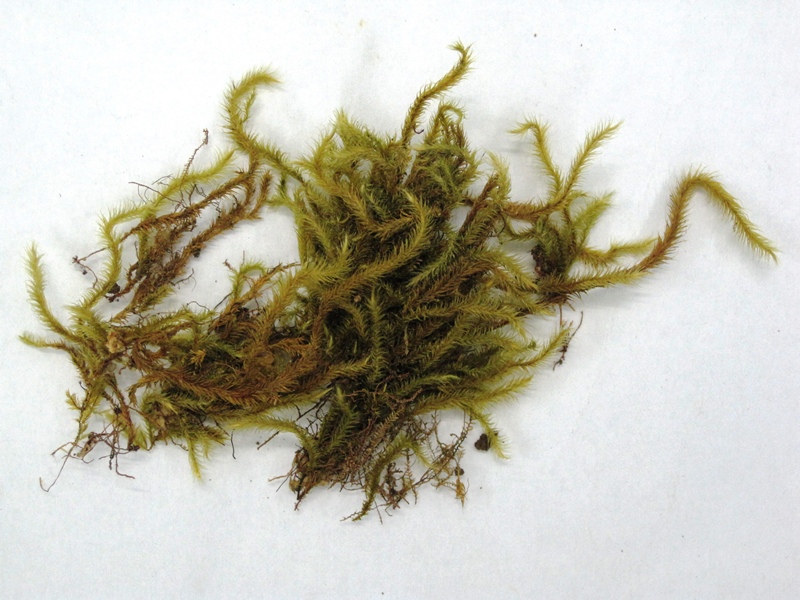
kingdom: Plantae
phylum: Bryophyta
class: Bryopsida
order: Hypnales
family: Myuriaceae
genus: Oedicladium
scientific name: Oedicladium fragile
